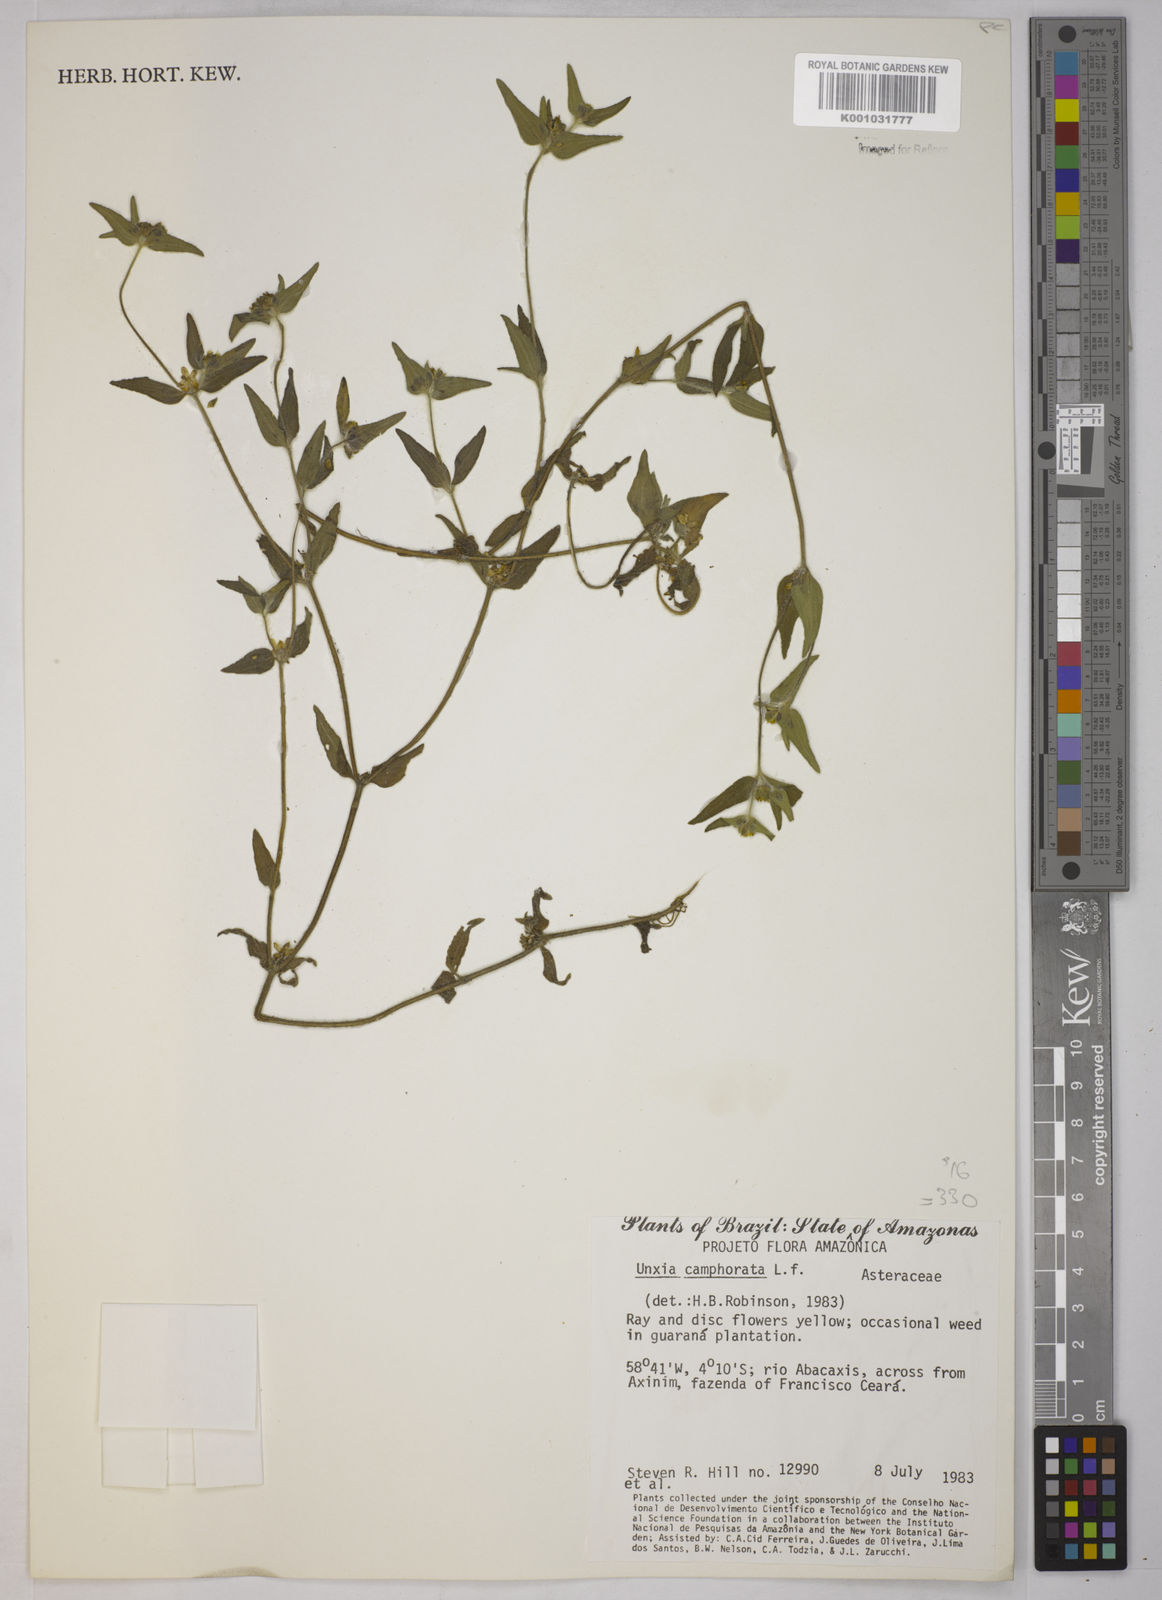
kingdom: Plantae
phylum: Tracheophyta
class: Magnoliopsida
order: Asterales
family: Asteraceae
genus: Unxia
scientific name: Unxia camphorata
